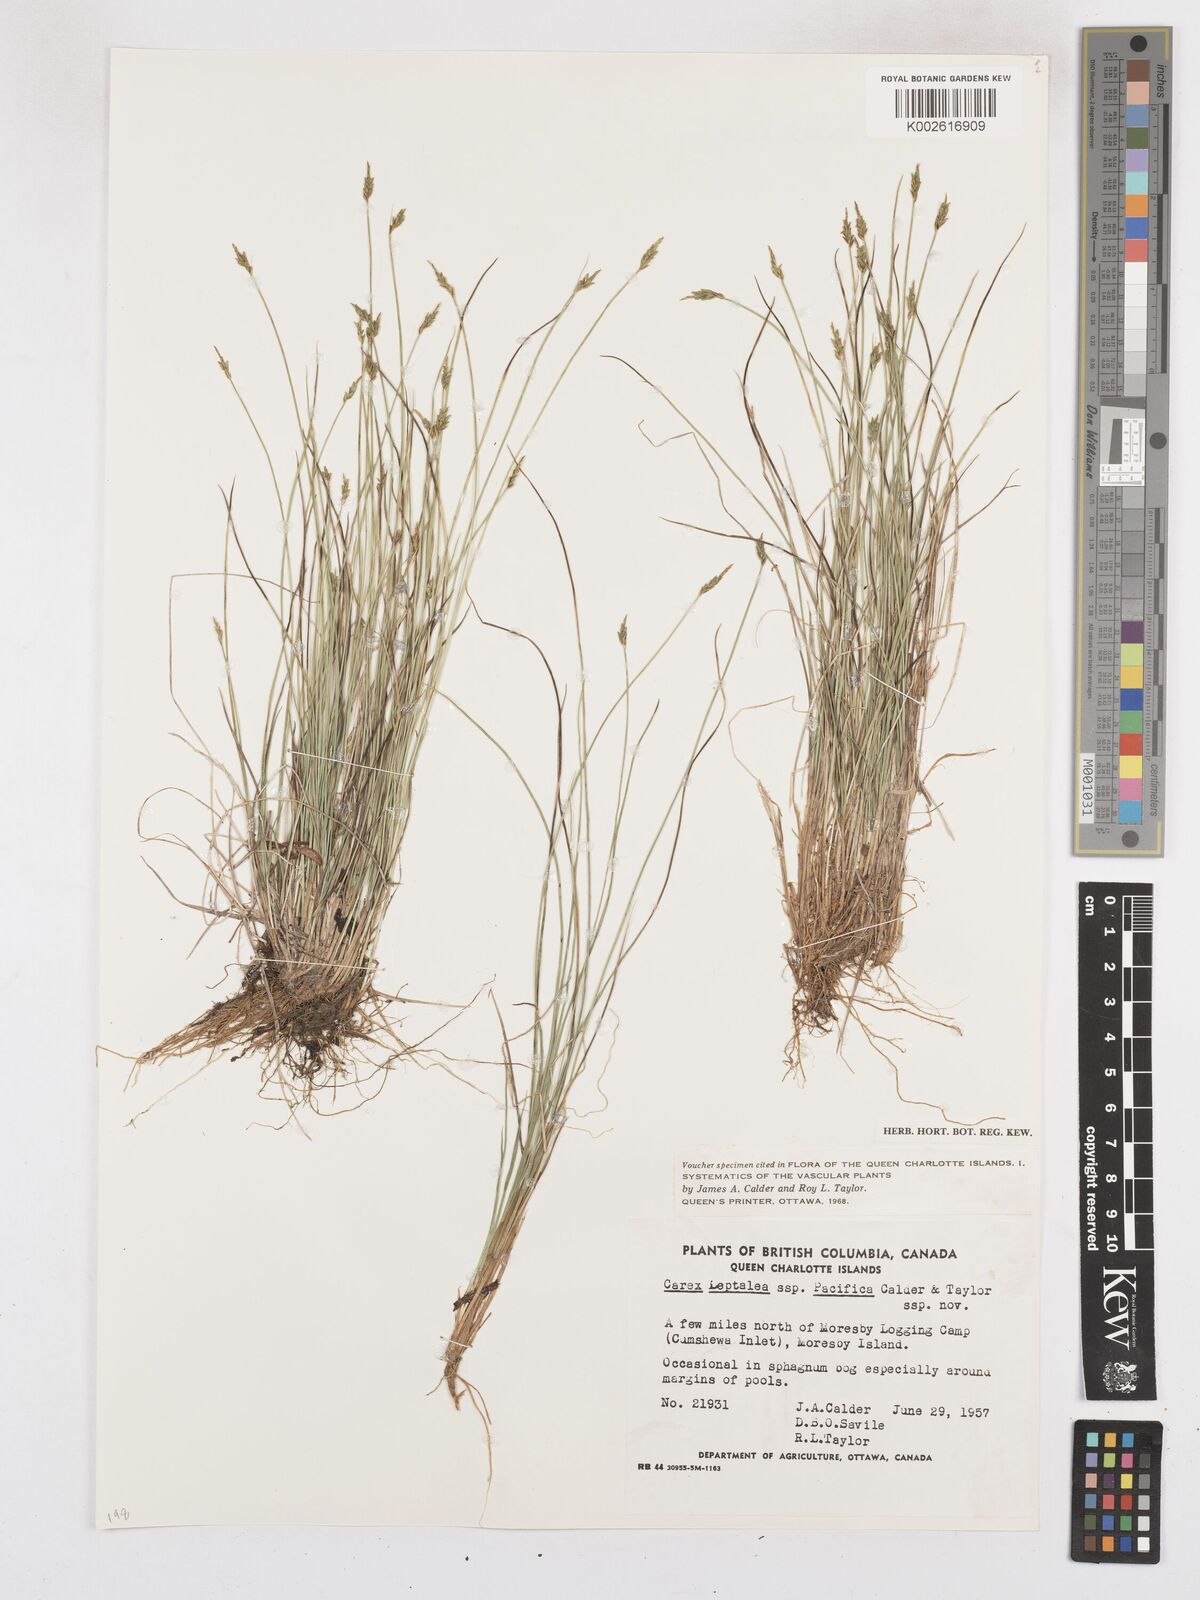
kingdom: Plantae
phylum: Tracheophyta
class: Liliopsida
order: Poales
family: Cyperaceae
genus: Carex
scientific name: Carex leptalea
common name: Bristly-stalked sedge
